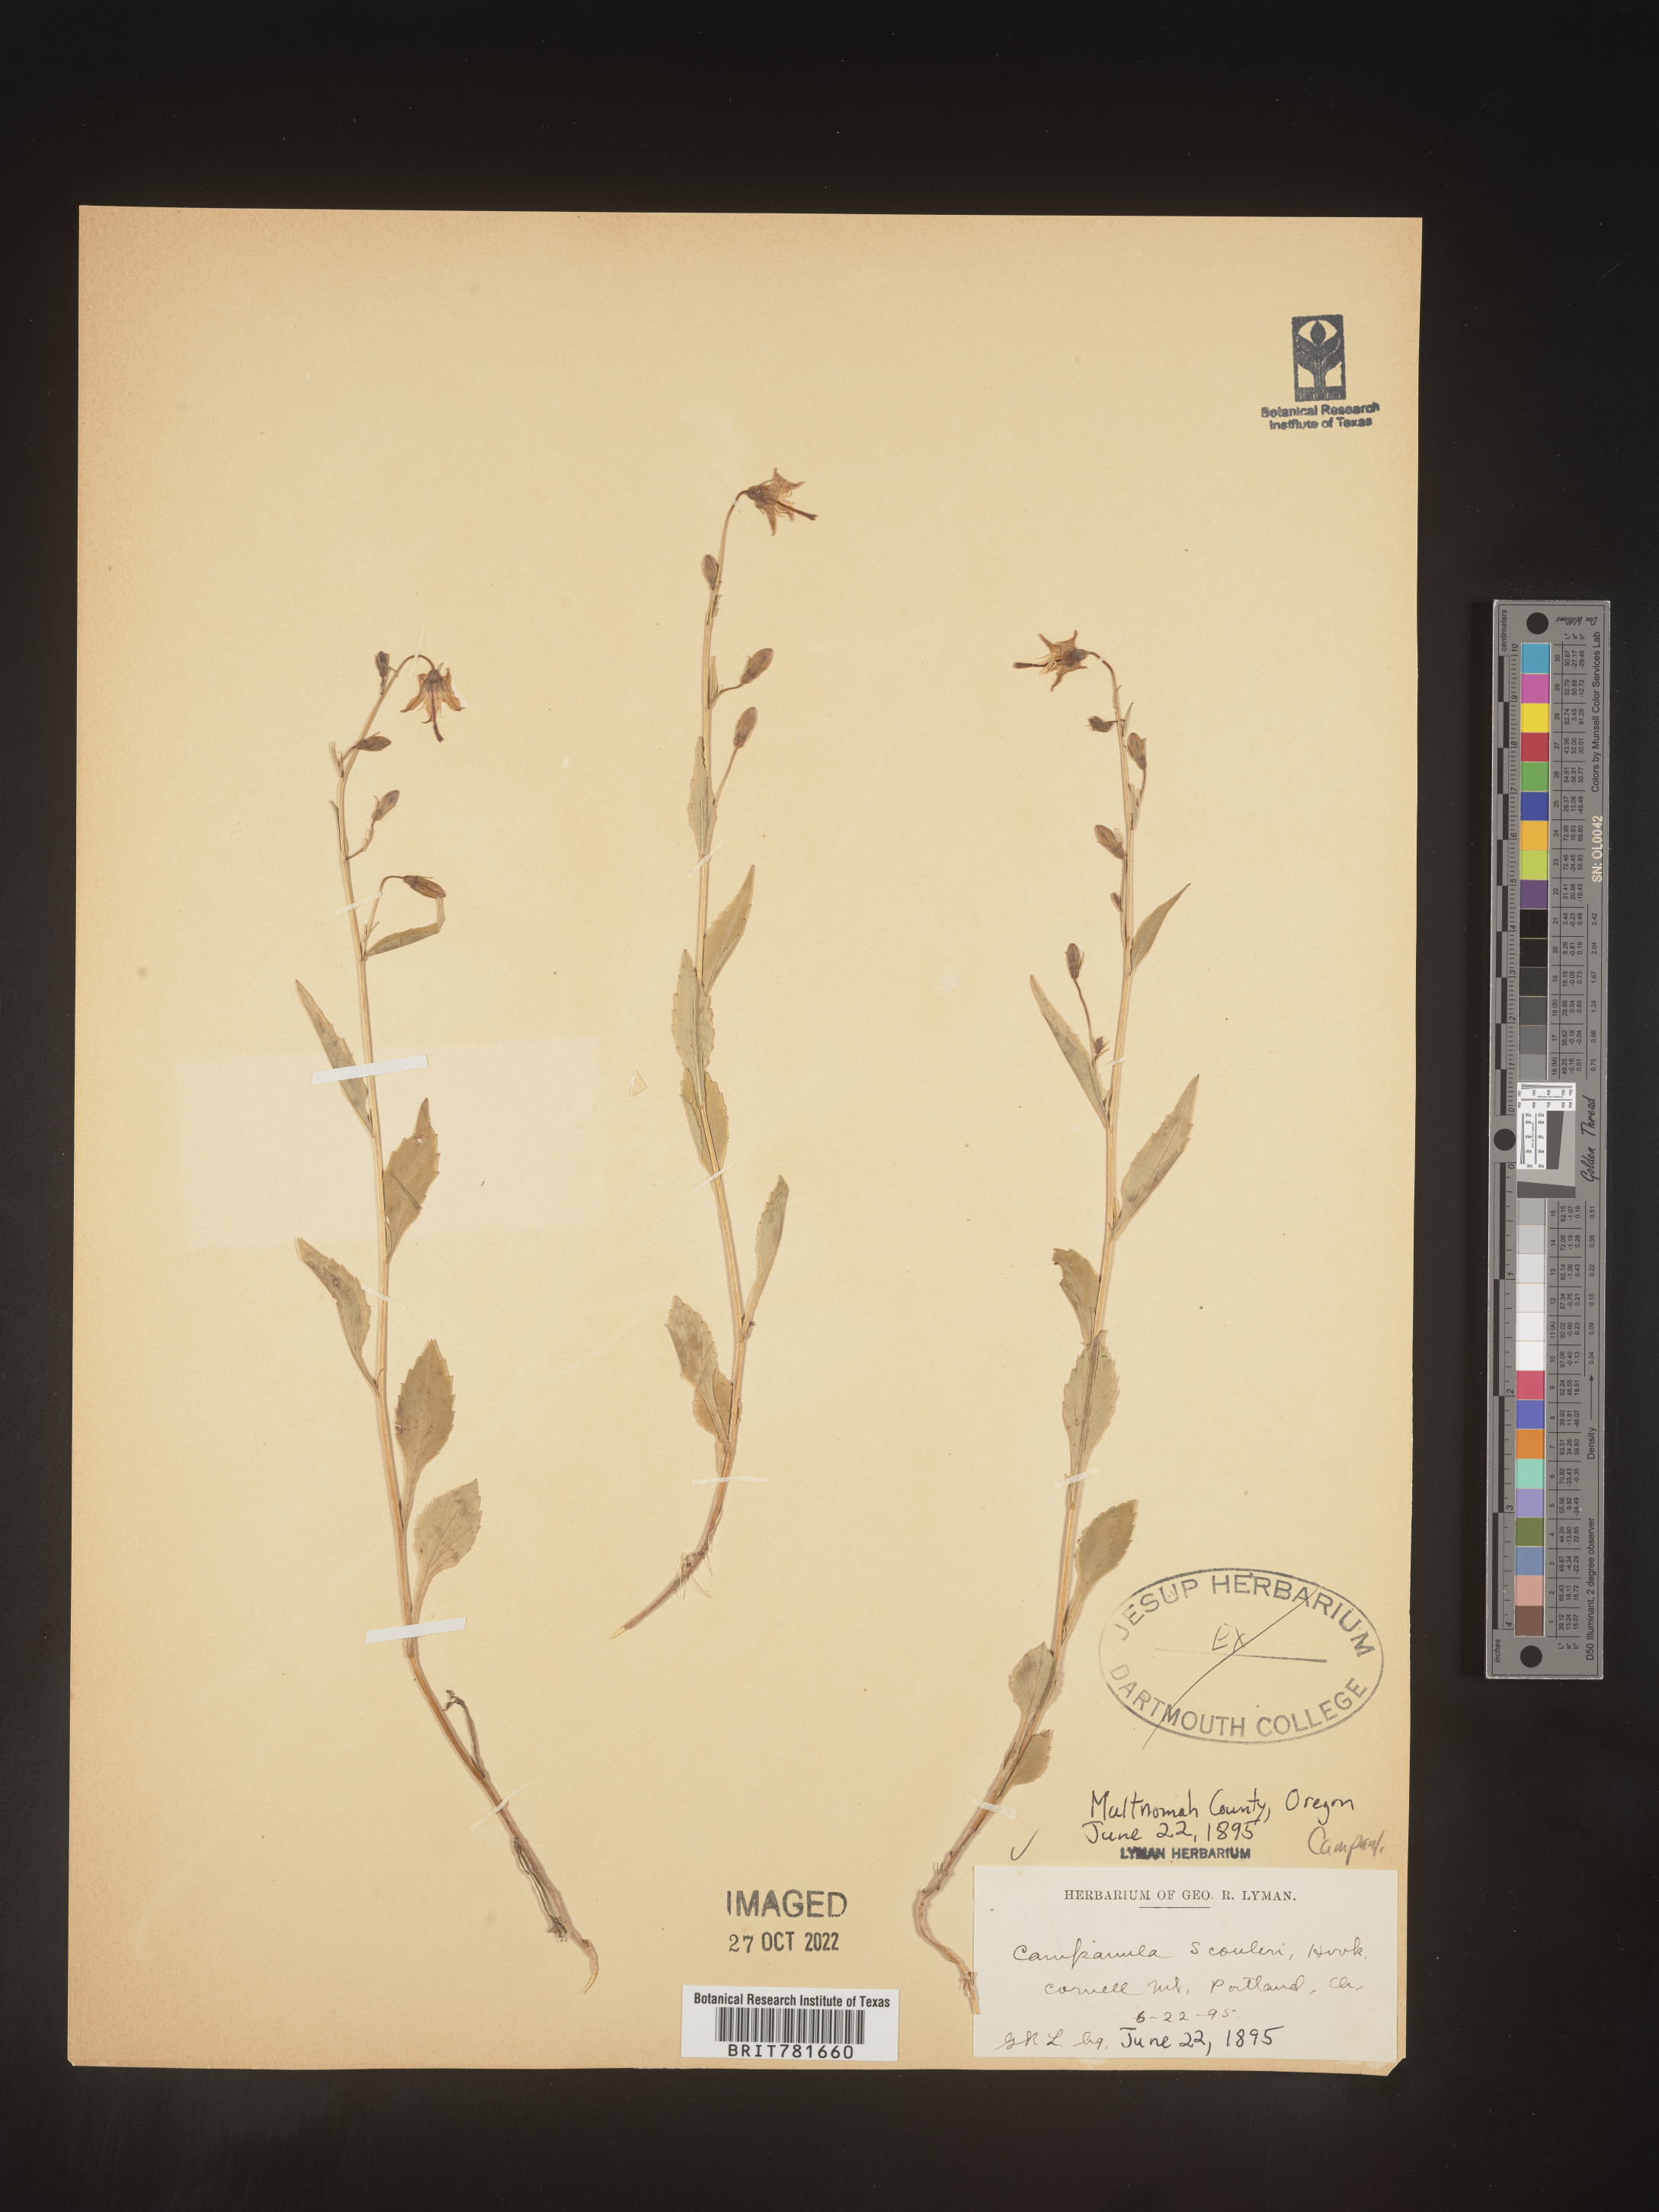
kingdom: Plantae
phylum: Tracheophyta
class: Magnoliopsida
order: Asterales
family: Campanulaceae
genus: Campanula
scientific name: Campanula
